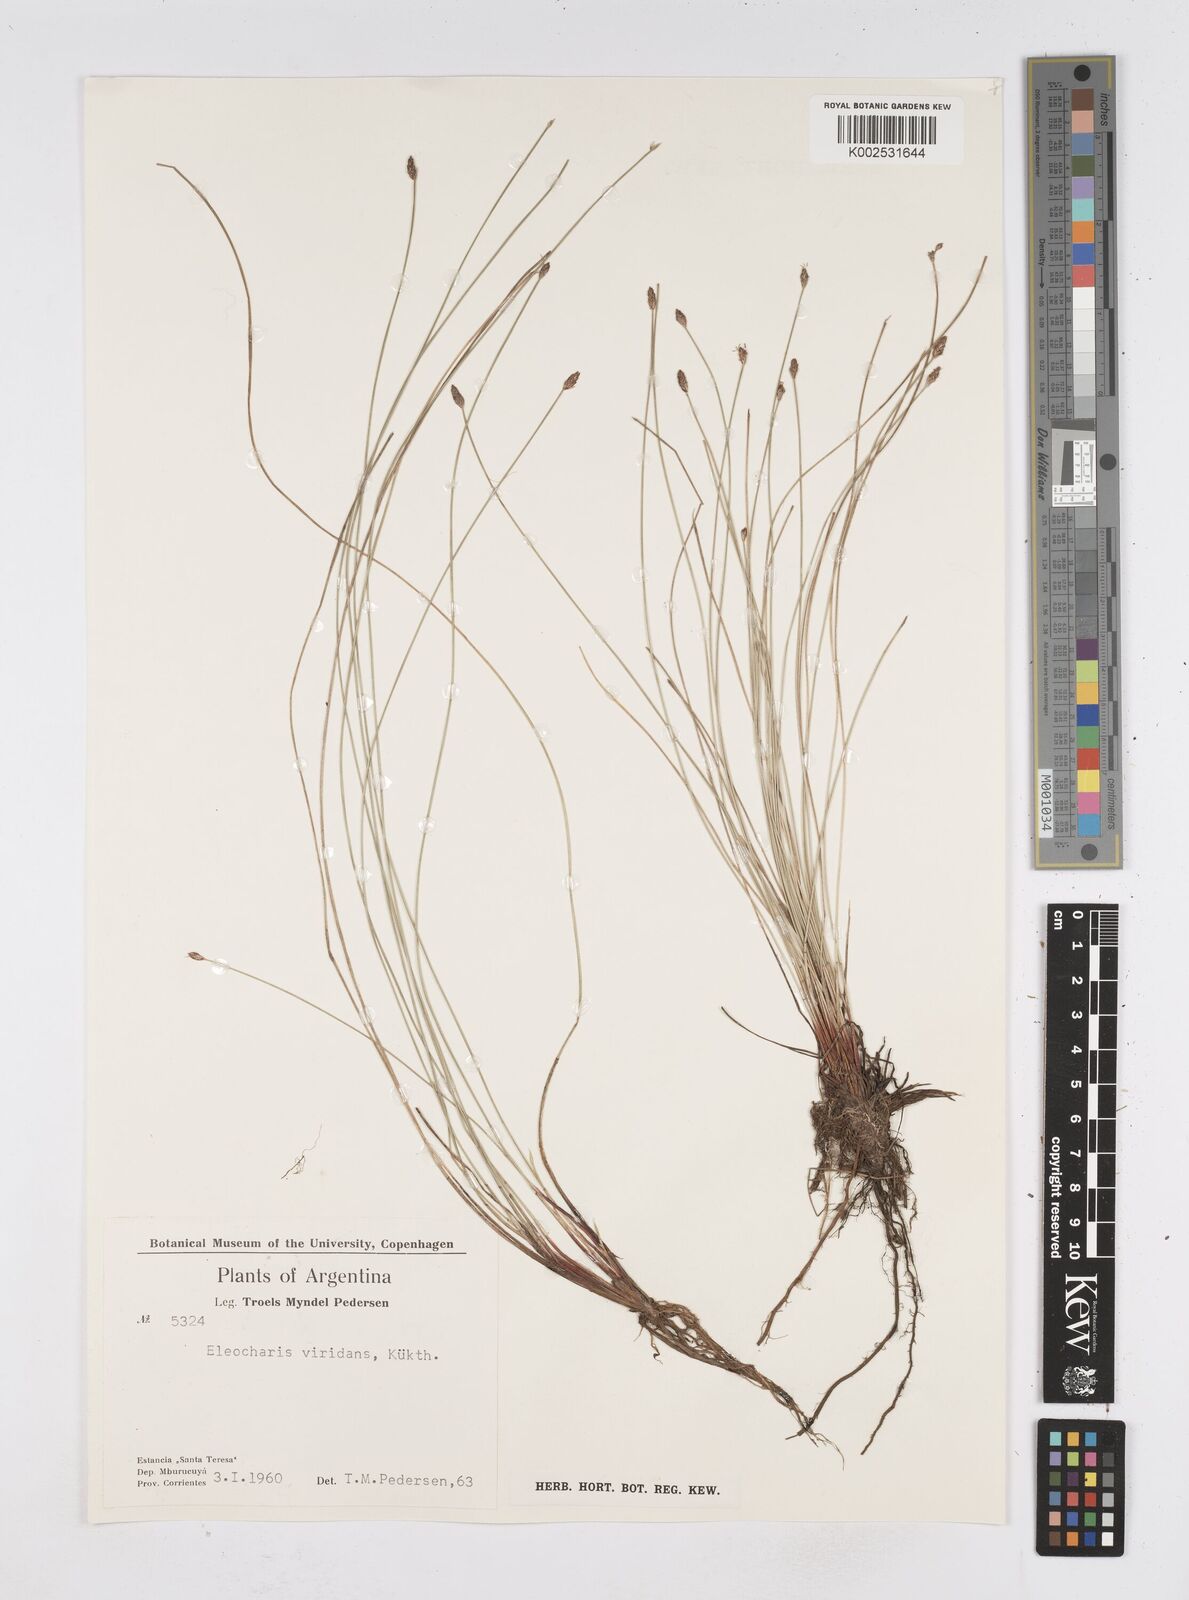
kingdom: Plantae
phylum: Tracheophyta
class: Liliopsida
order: Poales
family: Cyperaceae
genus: Eleocharis
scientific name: Eleocharis viridans
